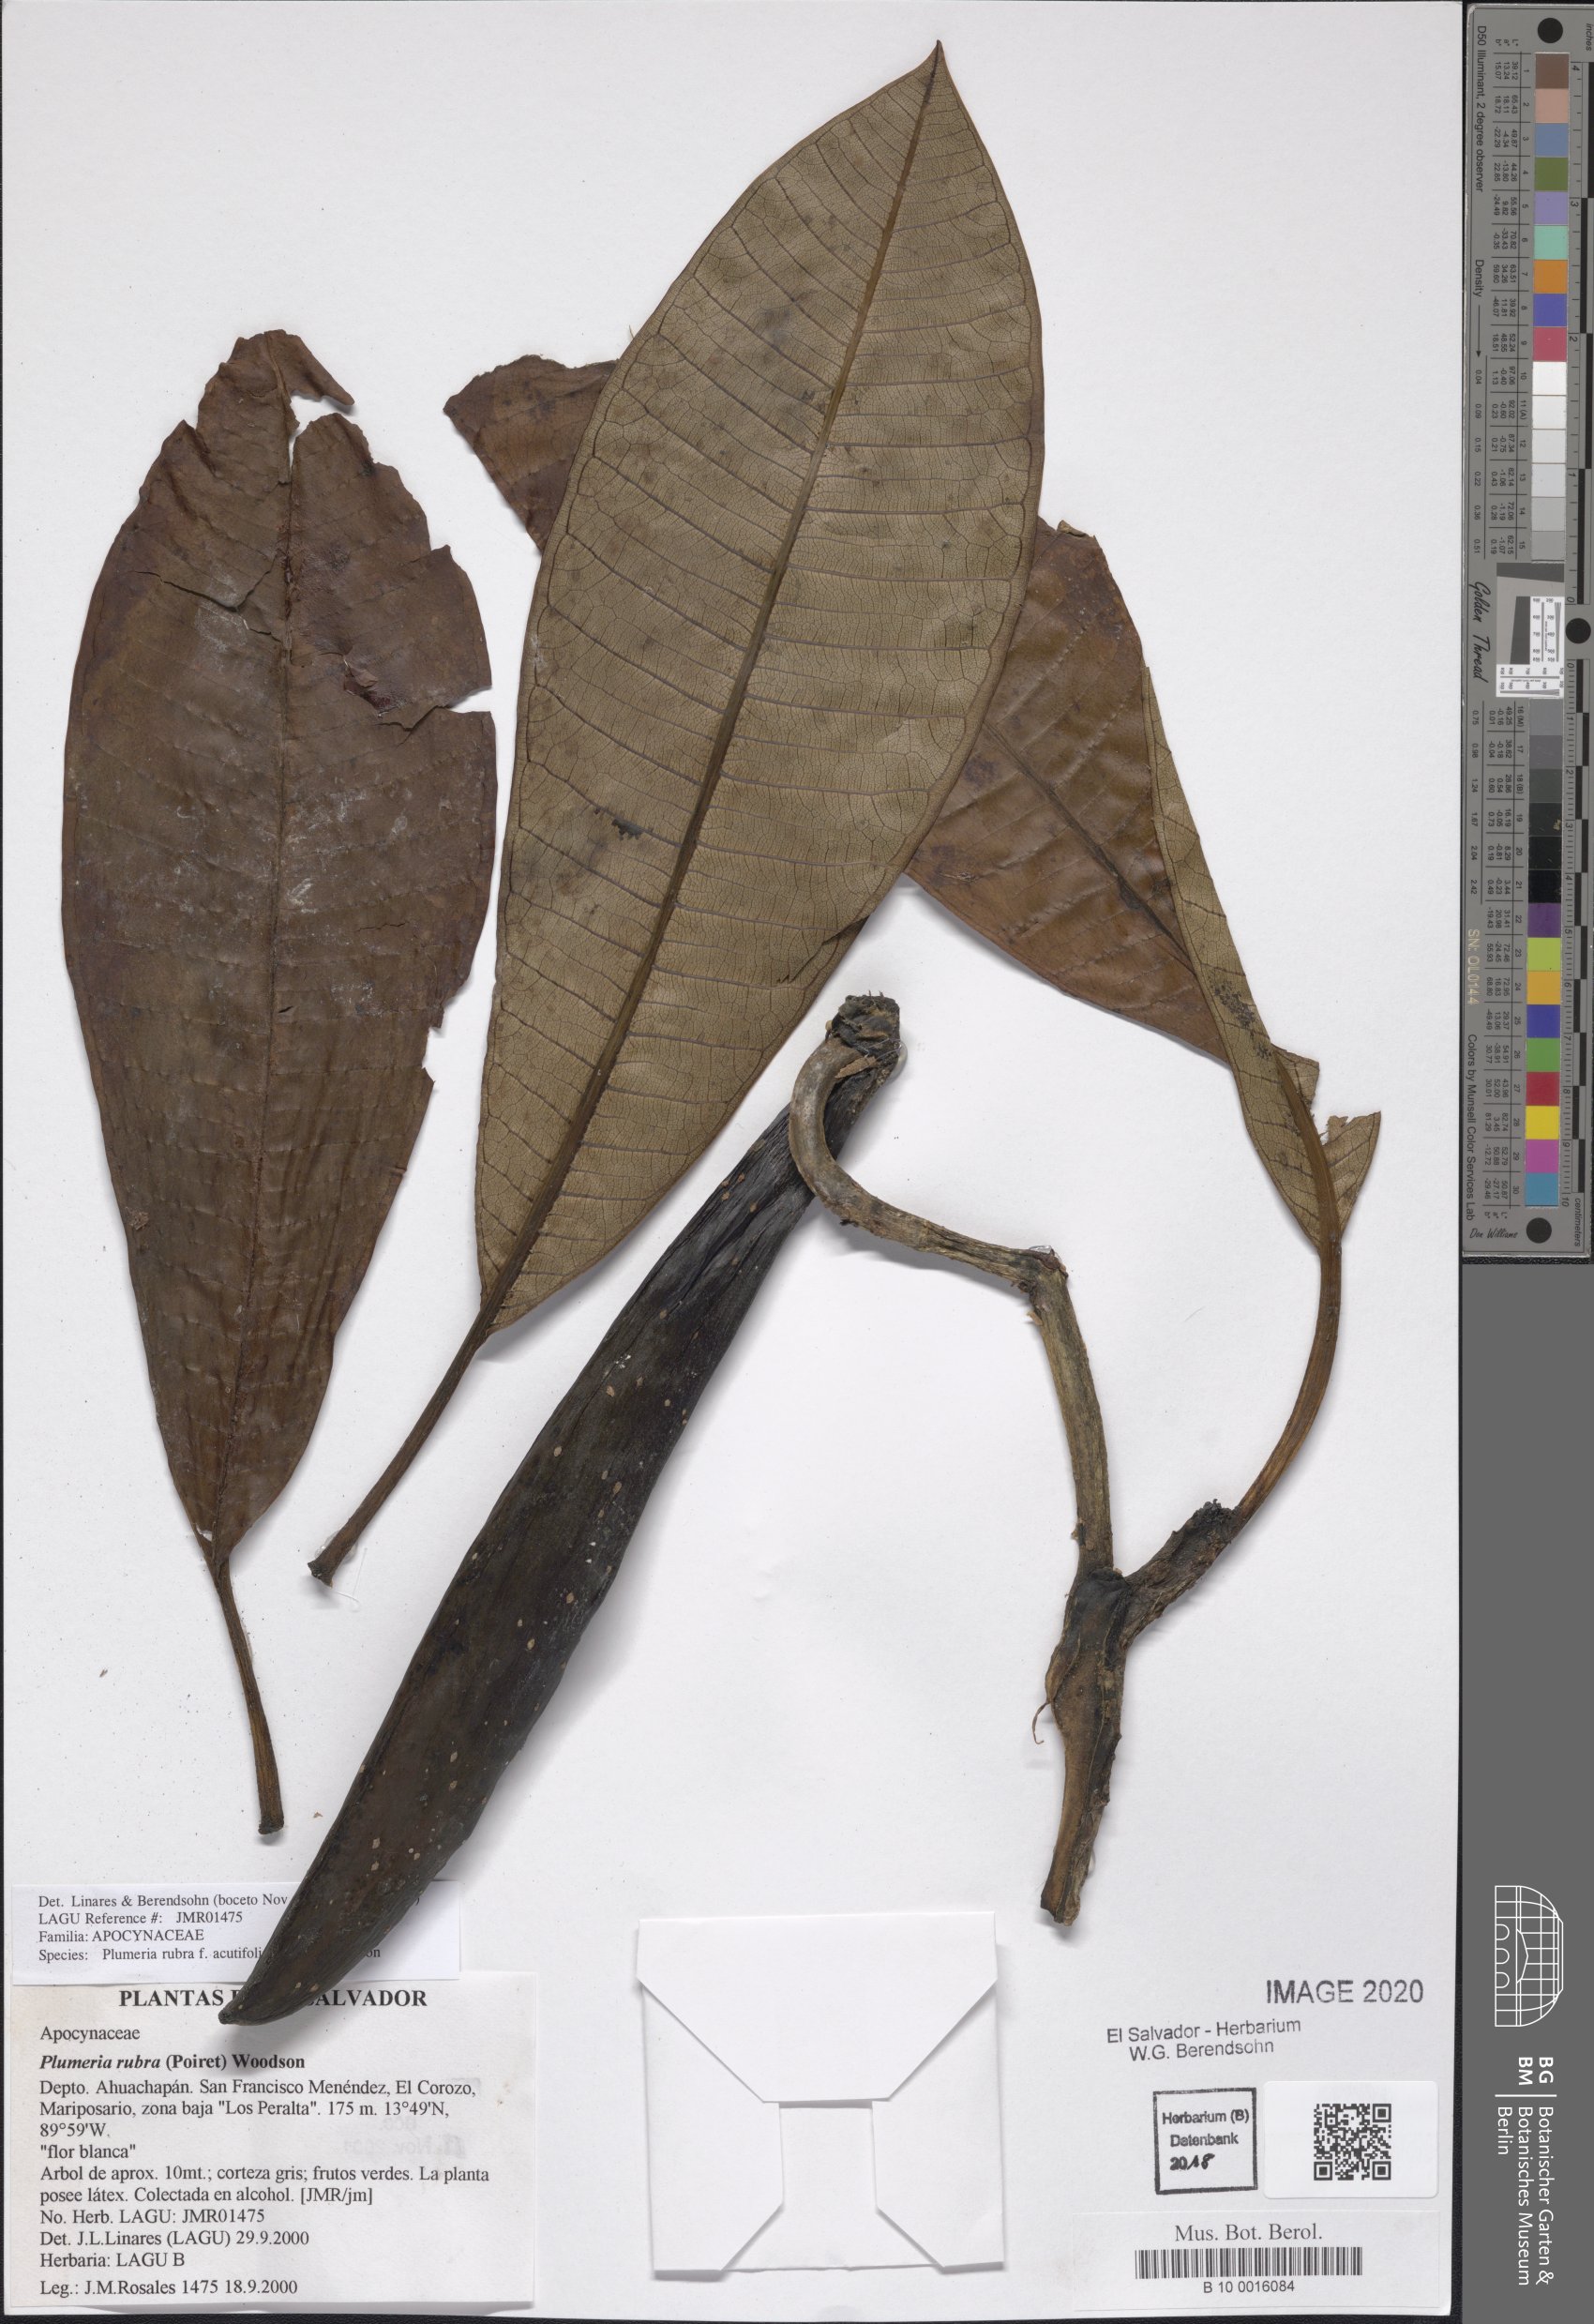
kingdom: Plantae
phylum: Tracheophyta
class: Magnoliopsida
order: Gentianales
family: Apocynaceae
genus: Plumeria
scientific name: Plumeria rubra
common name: Pagoda-tree
